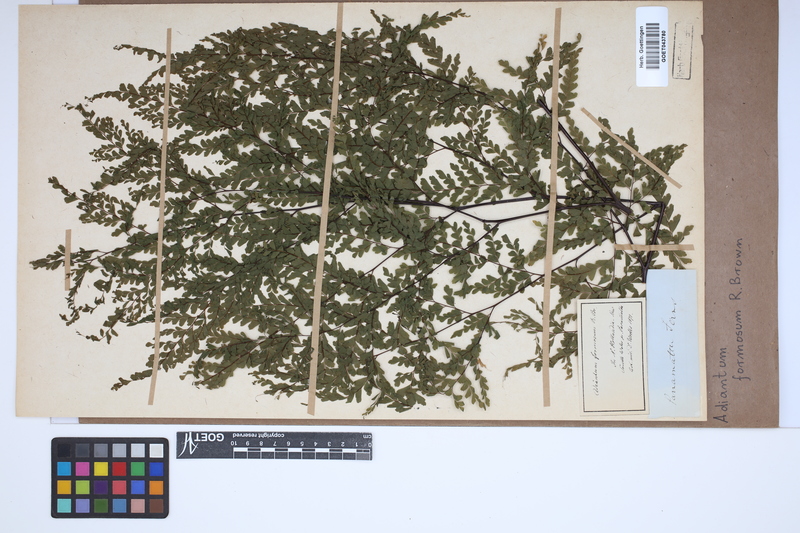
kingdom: Plantae
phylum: Tracheophyta
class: Polypodiopsida
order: Polypodiales
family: Pteridaceae
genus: Adiantum
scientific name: Adiantum formosum
